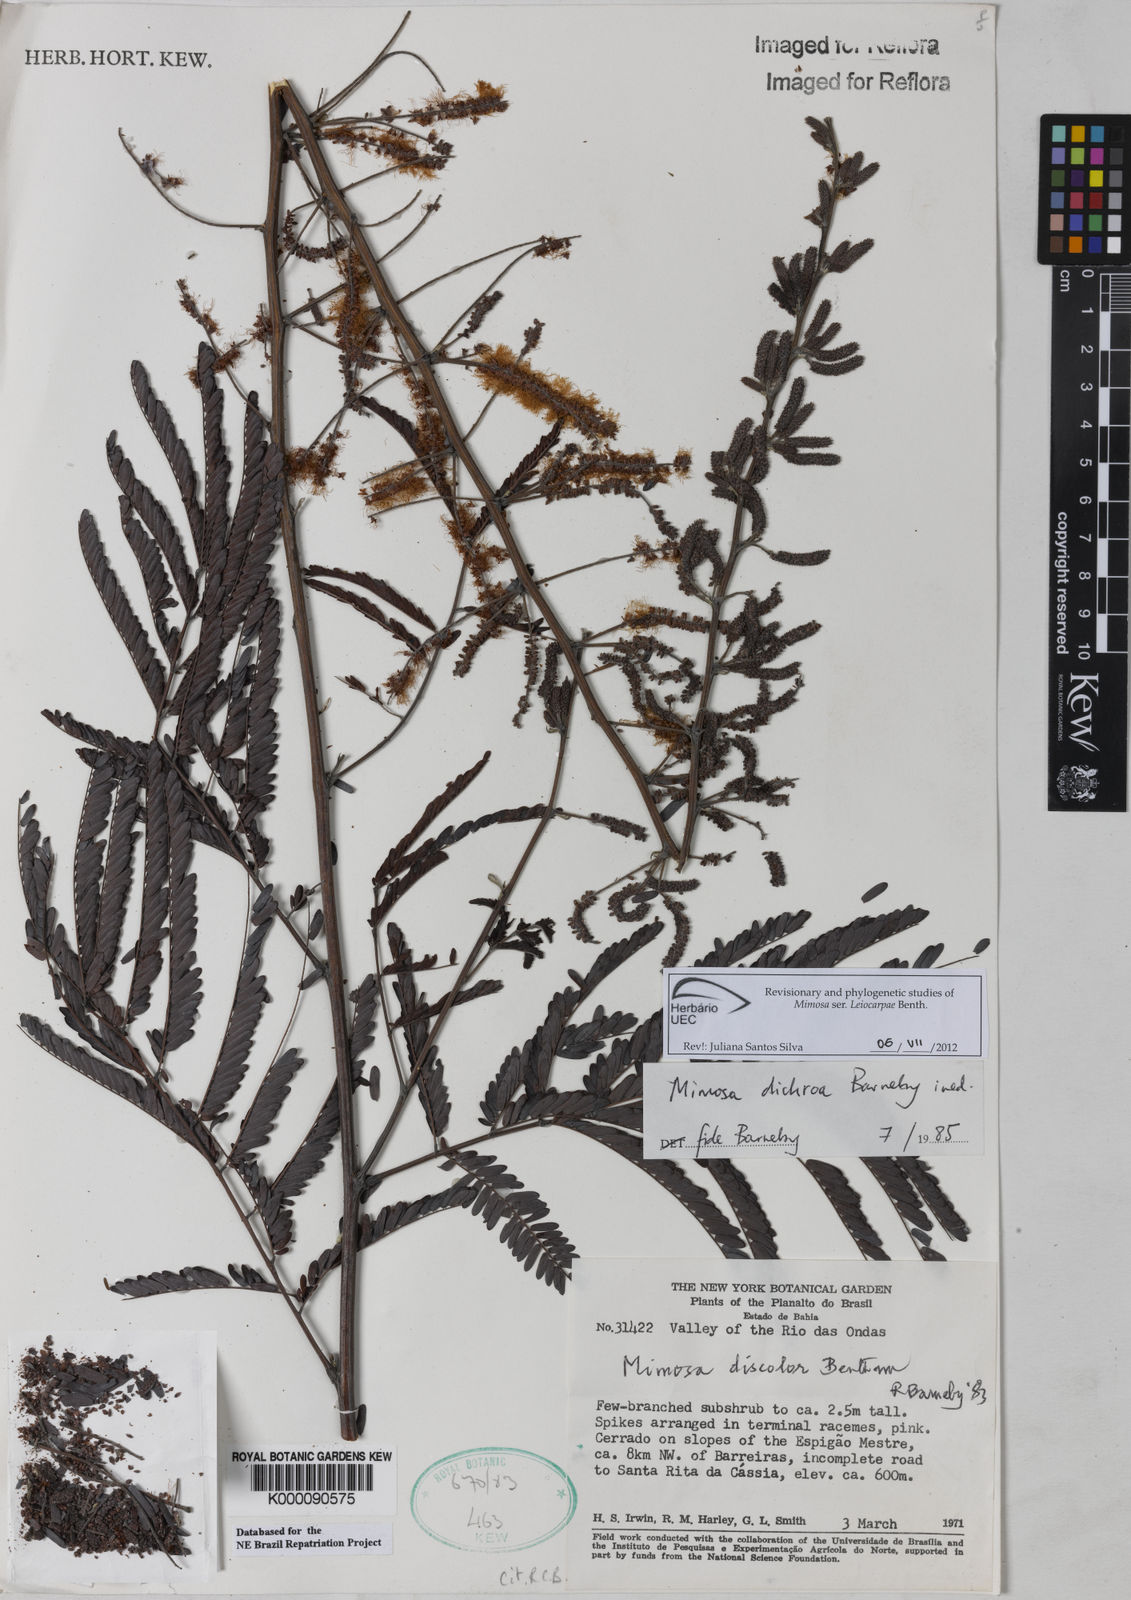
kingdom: Plantae
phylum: Tracheophyta
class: Magnoliopsida
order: Fabales
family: Fabaceae
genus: Mimosa
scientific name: Mimosa dichroa
